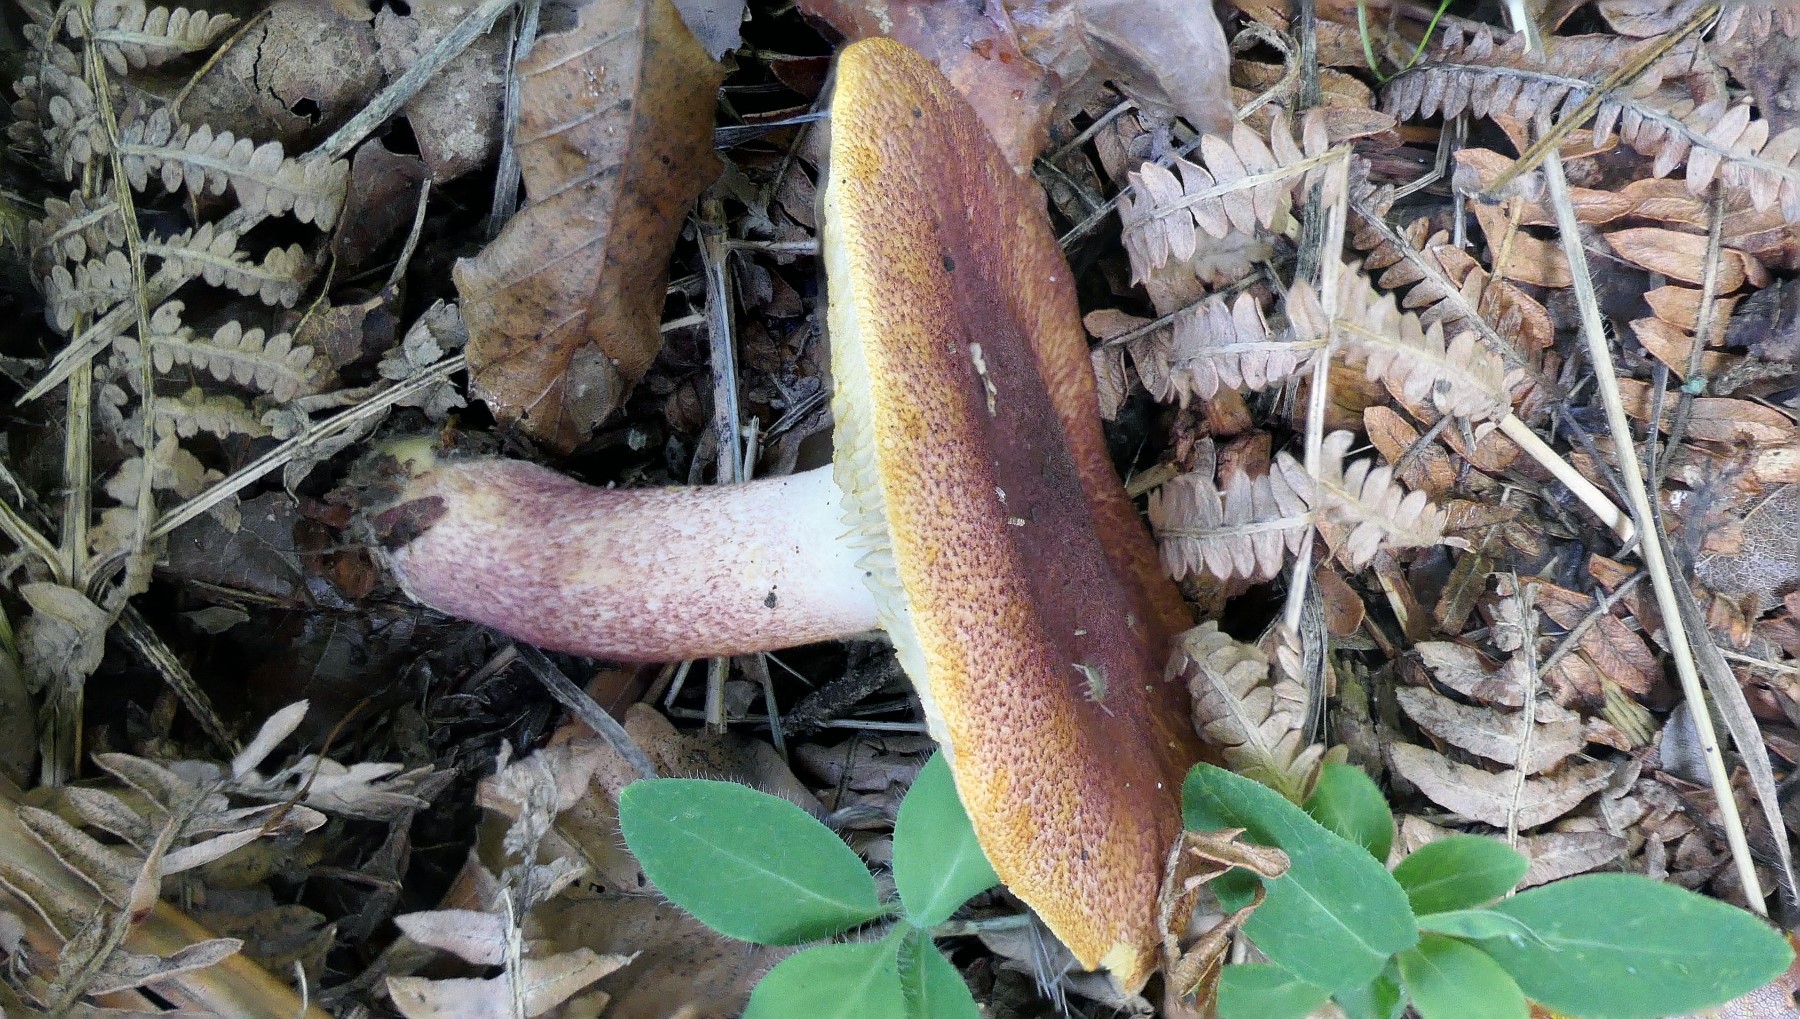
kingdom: Fungi
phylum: Basidiomycota
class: Agaricomycetes
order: Agaricales
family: Tricholomataceae
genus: Tricholomopsis
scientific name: Tricholomopsis rutilans
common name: purpur-væbnerhat
